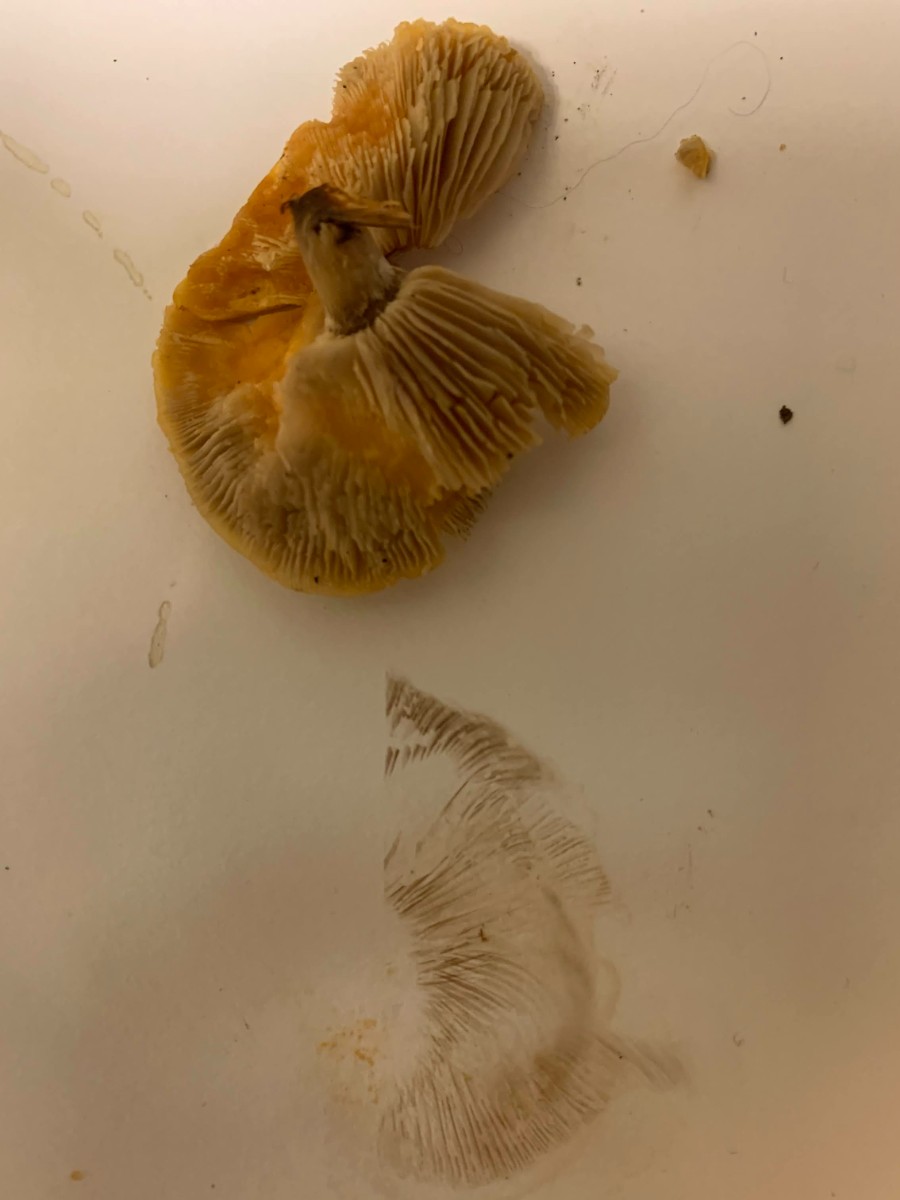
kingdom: Fungi
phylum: Basidiomycota
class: Agaricomycetes
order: Agaricales
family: Strophariaceae
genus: Agrocybe
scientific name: Agrocybe
